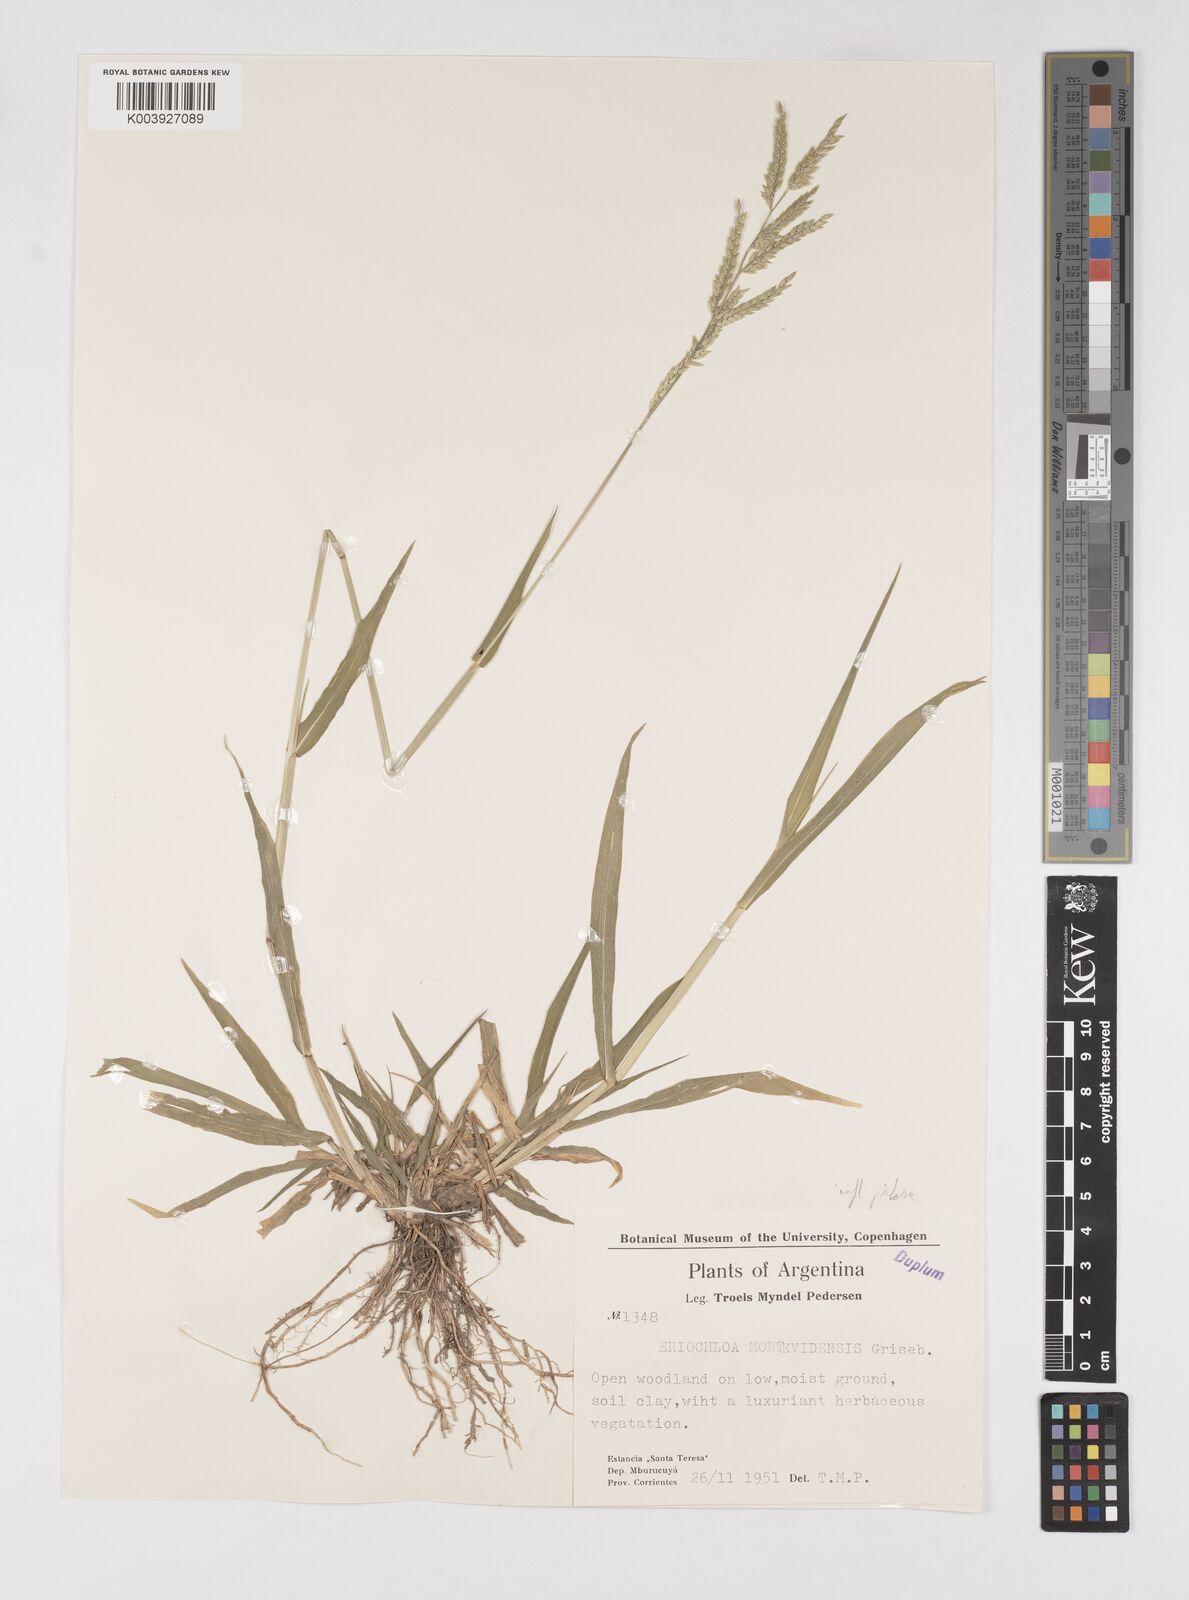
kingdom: Plantae
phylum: Tracheophyta
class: Liliopsida
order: Poales
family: Poaceae
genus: Eriochloa
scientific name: Eriochloa punctata
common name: Louisiana cupgrass
